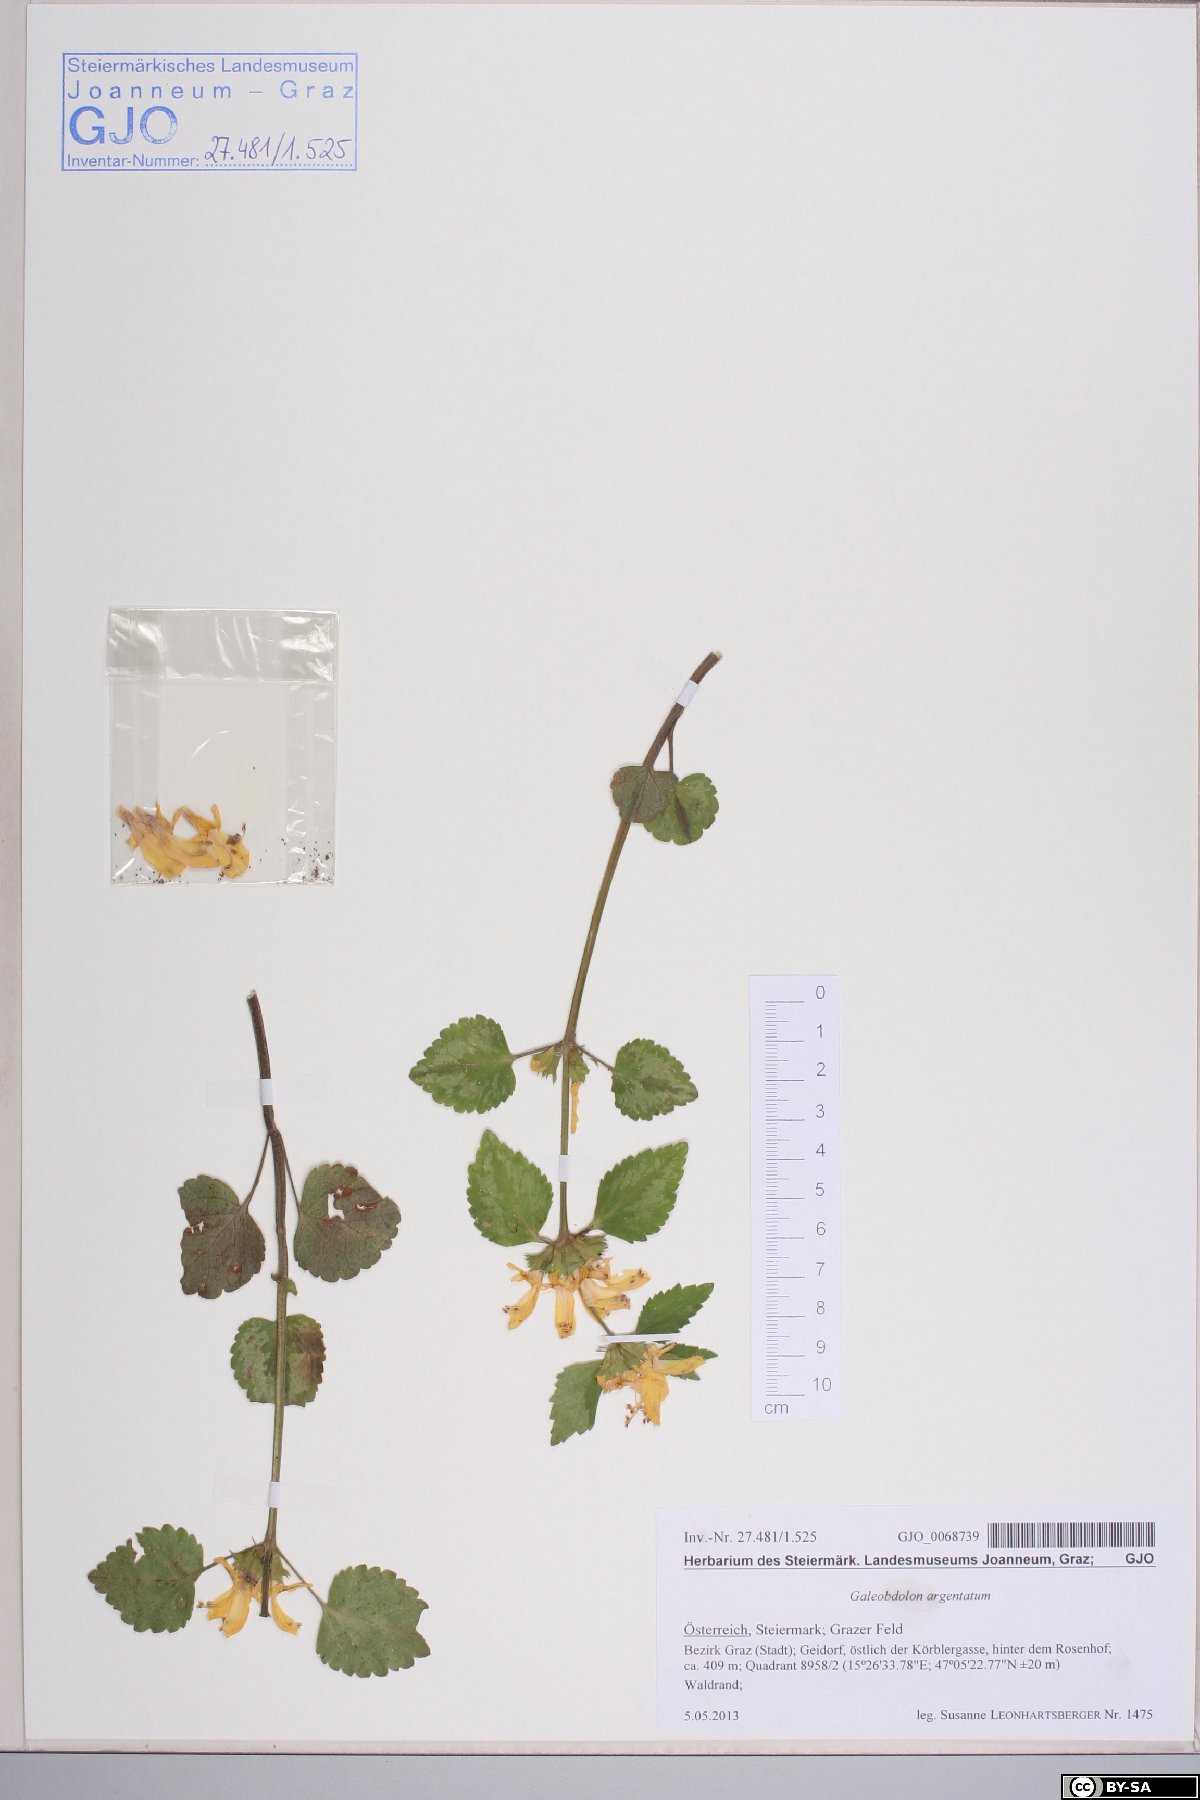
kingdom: Plantae
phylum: Tracheophyta
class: Magnoliopsida
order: Lamiales
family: Lamiaceae
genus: Lamium
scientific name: Lamium galeobdolon
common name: Yellow archangel
